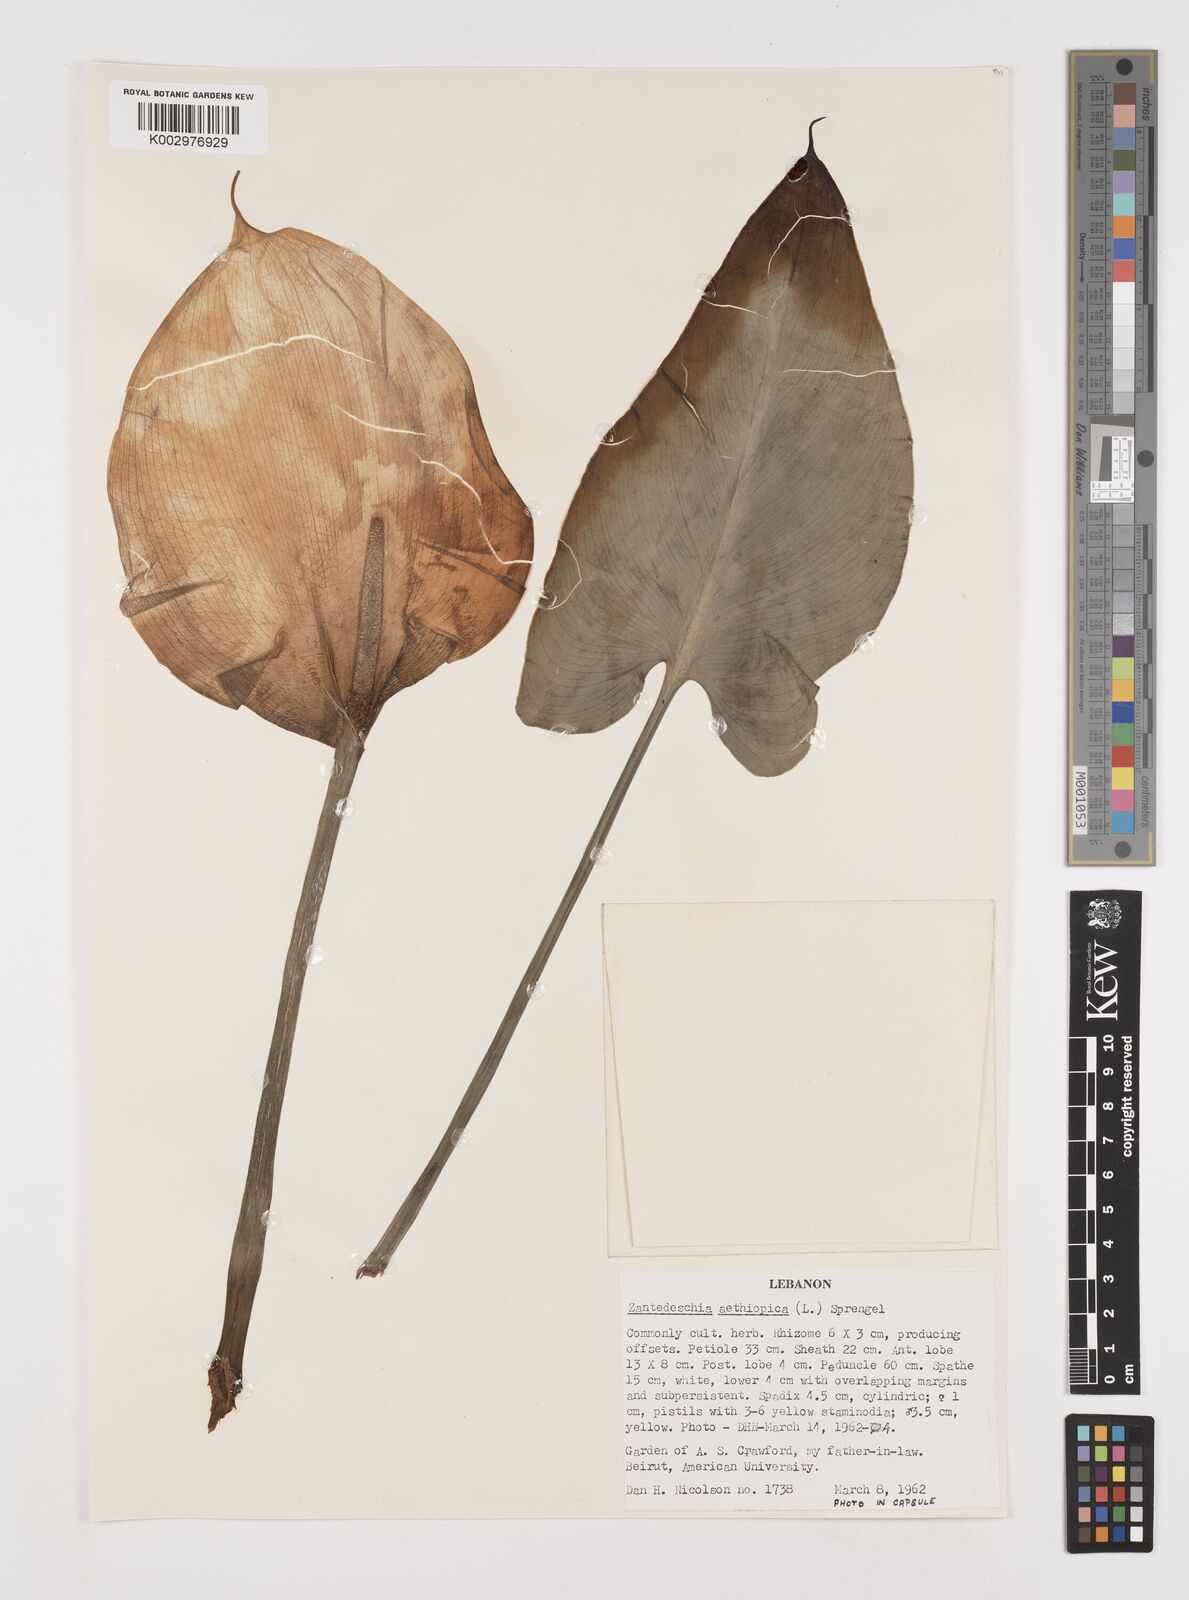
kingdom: Plantae
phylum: Tracheophyta
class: Liliopsida
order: Alismatales
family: Araceae
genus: Zantedeschia
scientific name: Zantedeschia aethiopica
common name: Altar-lily
